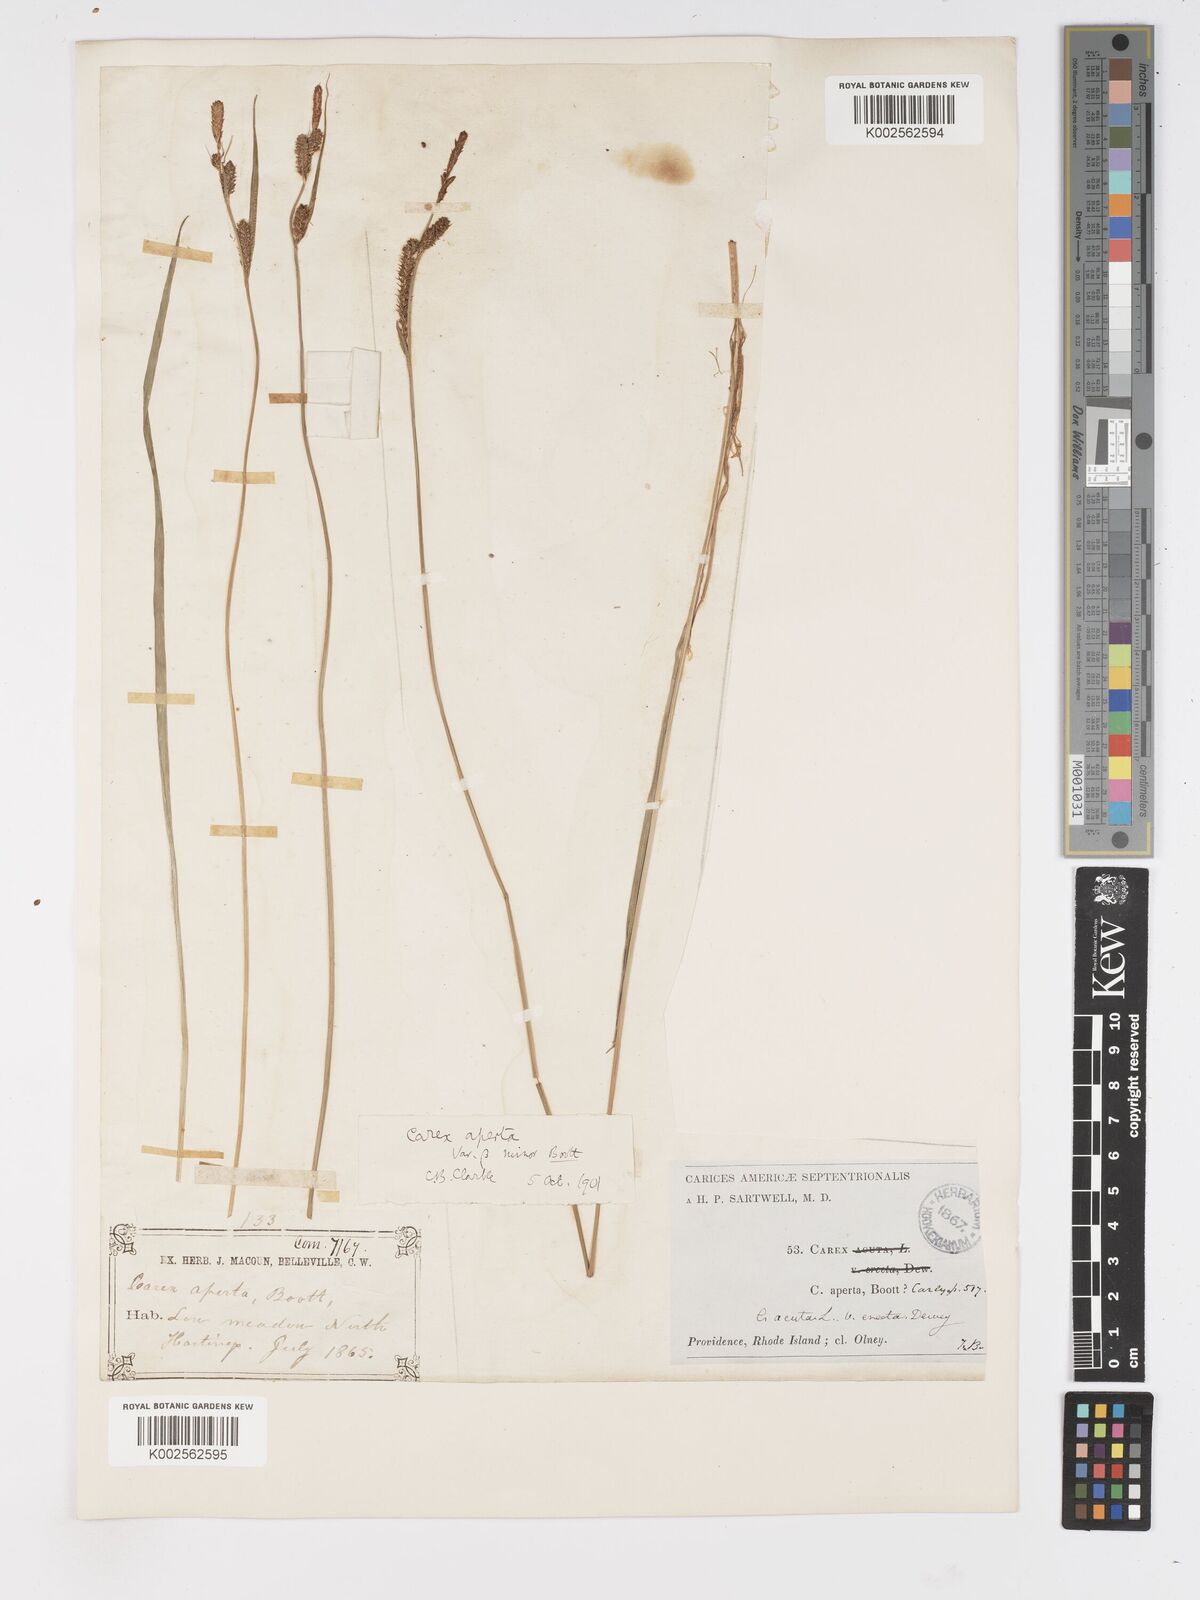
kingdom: Plantae
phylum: Tracheophyta
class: Liliopsida
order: Poales
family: Cyperaceae
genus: Carex
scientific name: Carex haydenii
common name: Hayden's sedge
